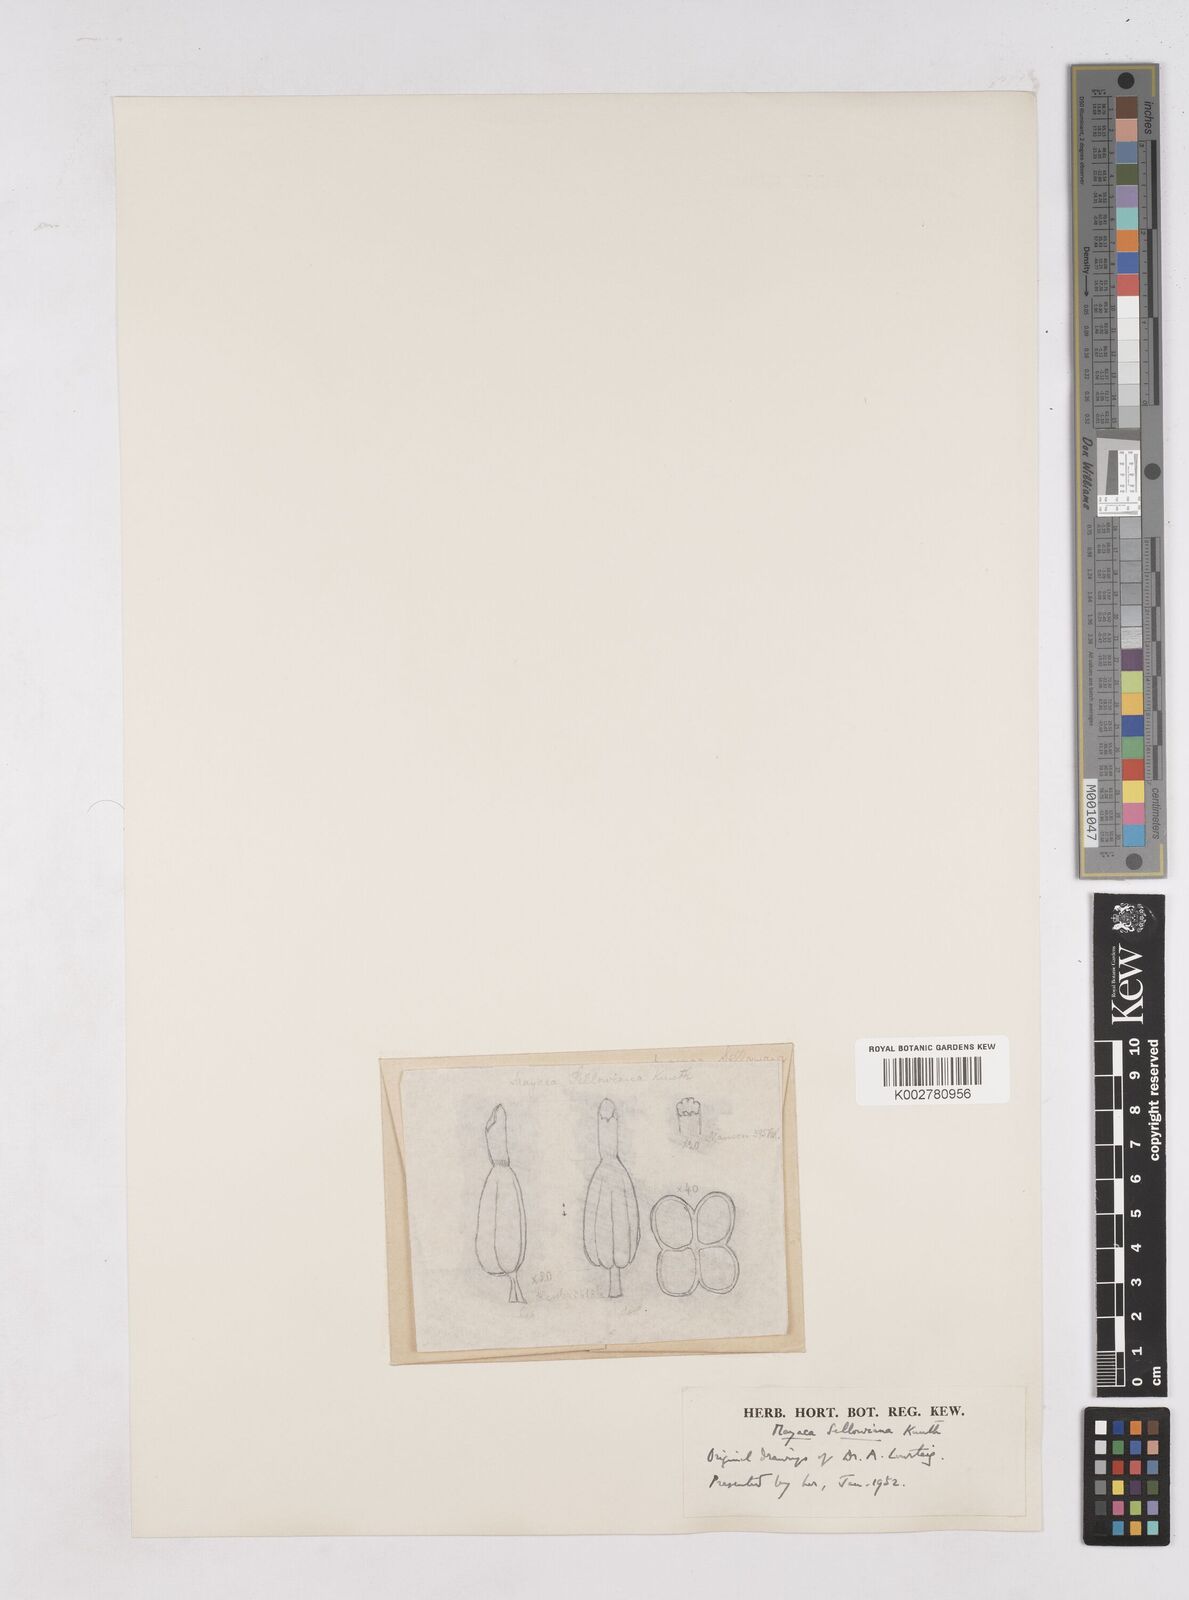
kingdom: Plantae
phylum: Tracheophyta
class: Liliopsida
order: Poales
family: Mayacaceae
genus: Mayaca
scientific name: Mayaca sellowiana
